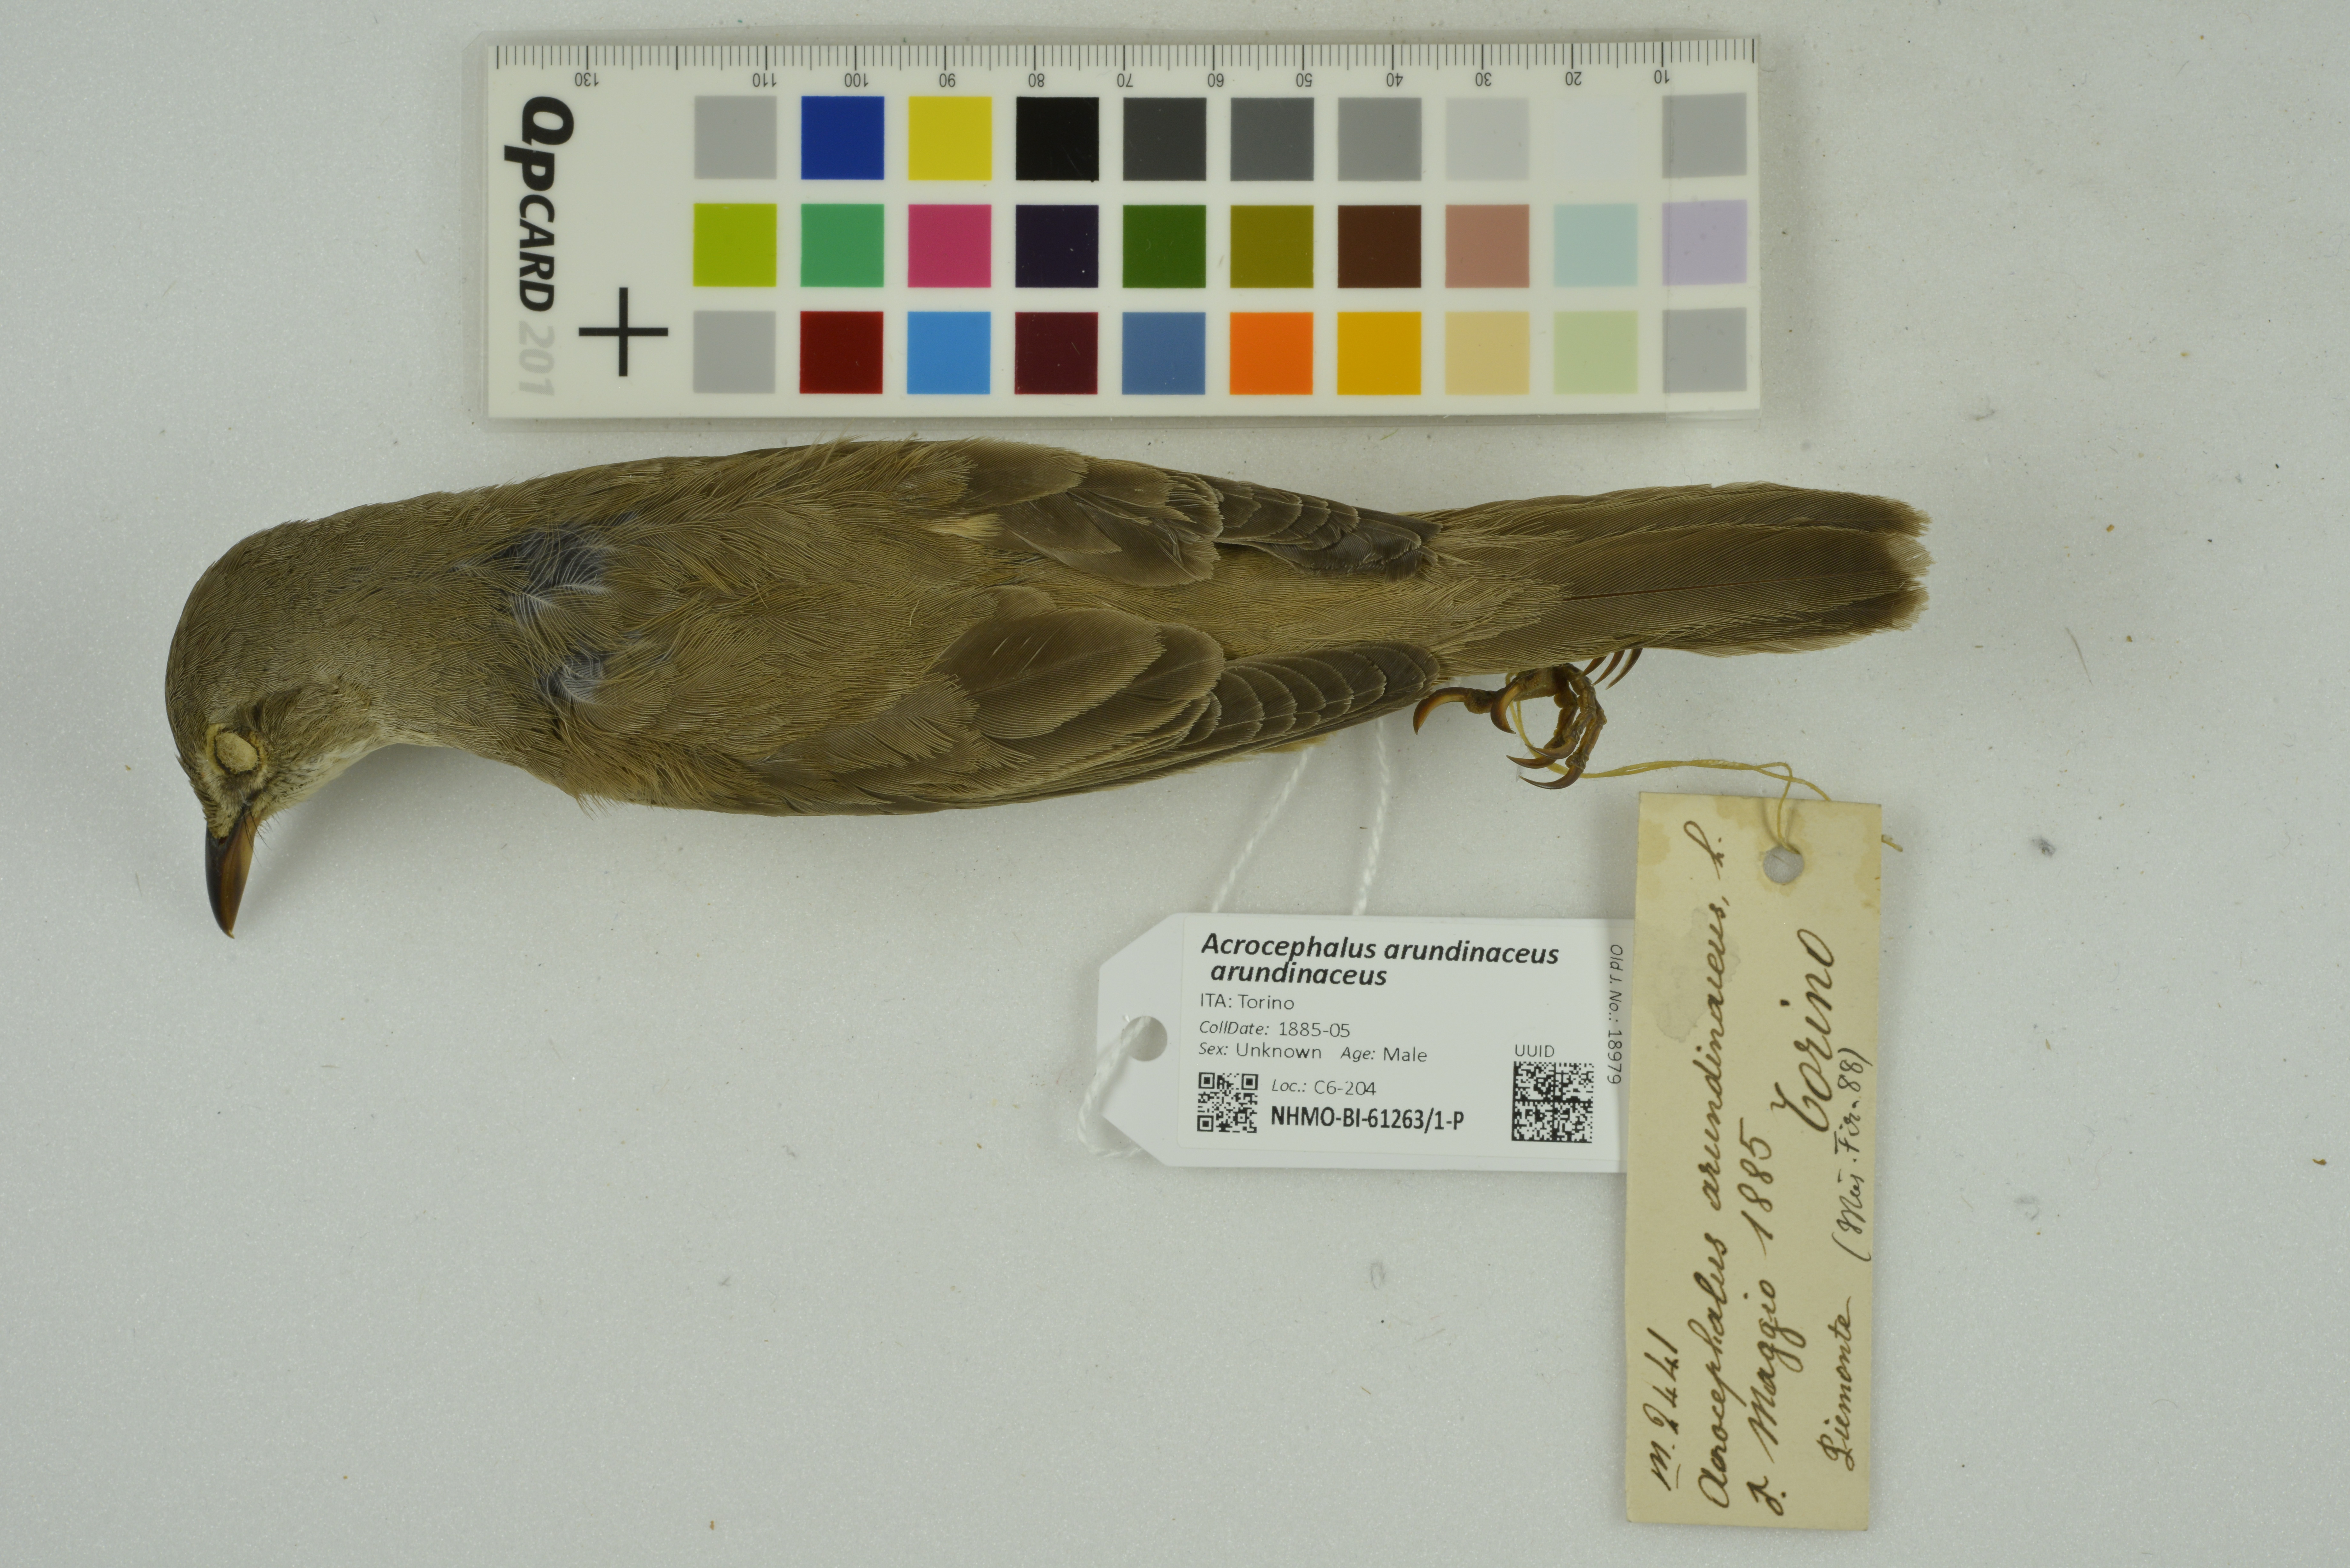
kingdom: Animalia
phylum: Chordata
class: Aves
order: Passeriformes
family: Acrocephalidae
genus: Acrocephalus
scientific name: Acrocephalus arundinaceus
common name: Great reed warbler
